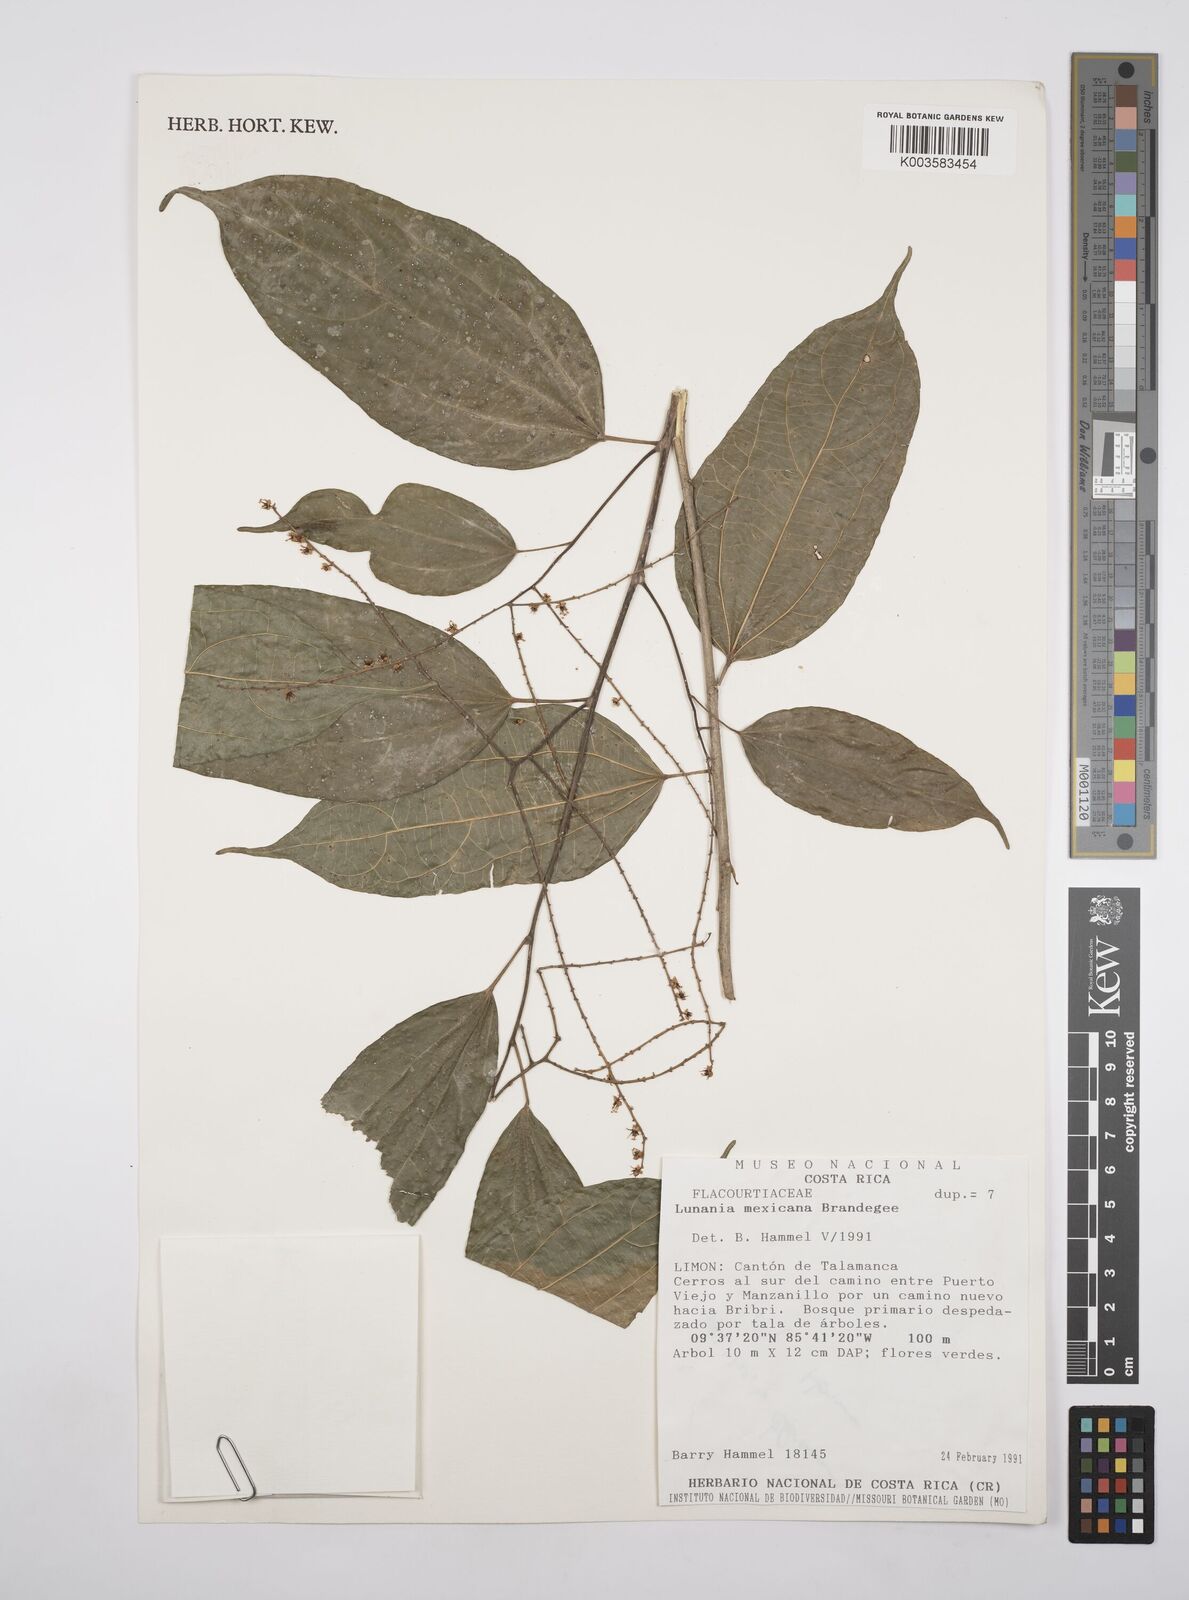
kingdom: Plantae
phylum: Tracheophyta
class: Magnoliopsida
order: Malpighiales
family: Salicaceae
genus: Lunania
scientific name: Lunania mexicana
